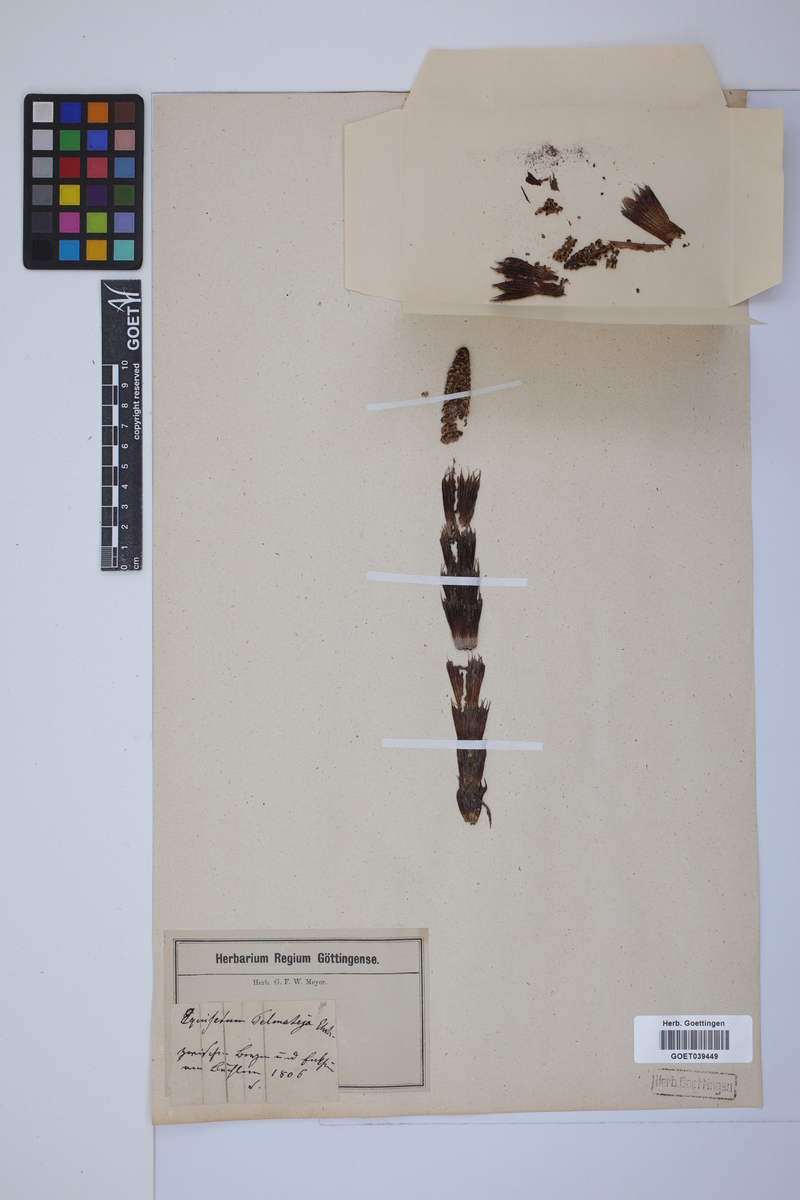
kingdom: Plantae
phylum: Tracheophyta
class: Polypodiopsida
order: Equisetales
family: Equisetaceae
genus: Equisetum
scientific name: Equisetum telmateia
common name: Great horsetail
